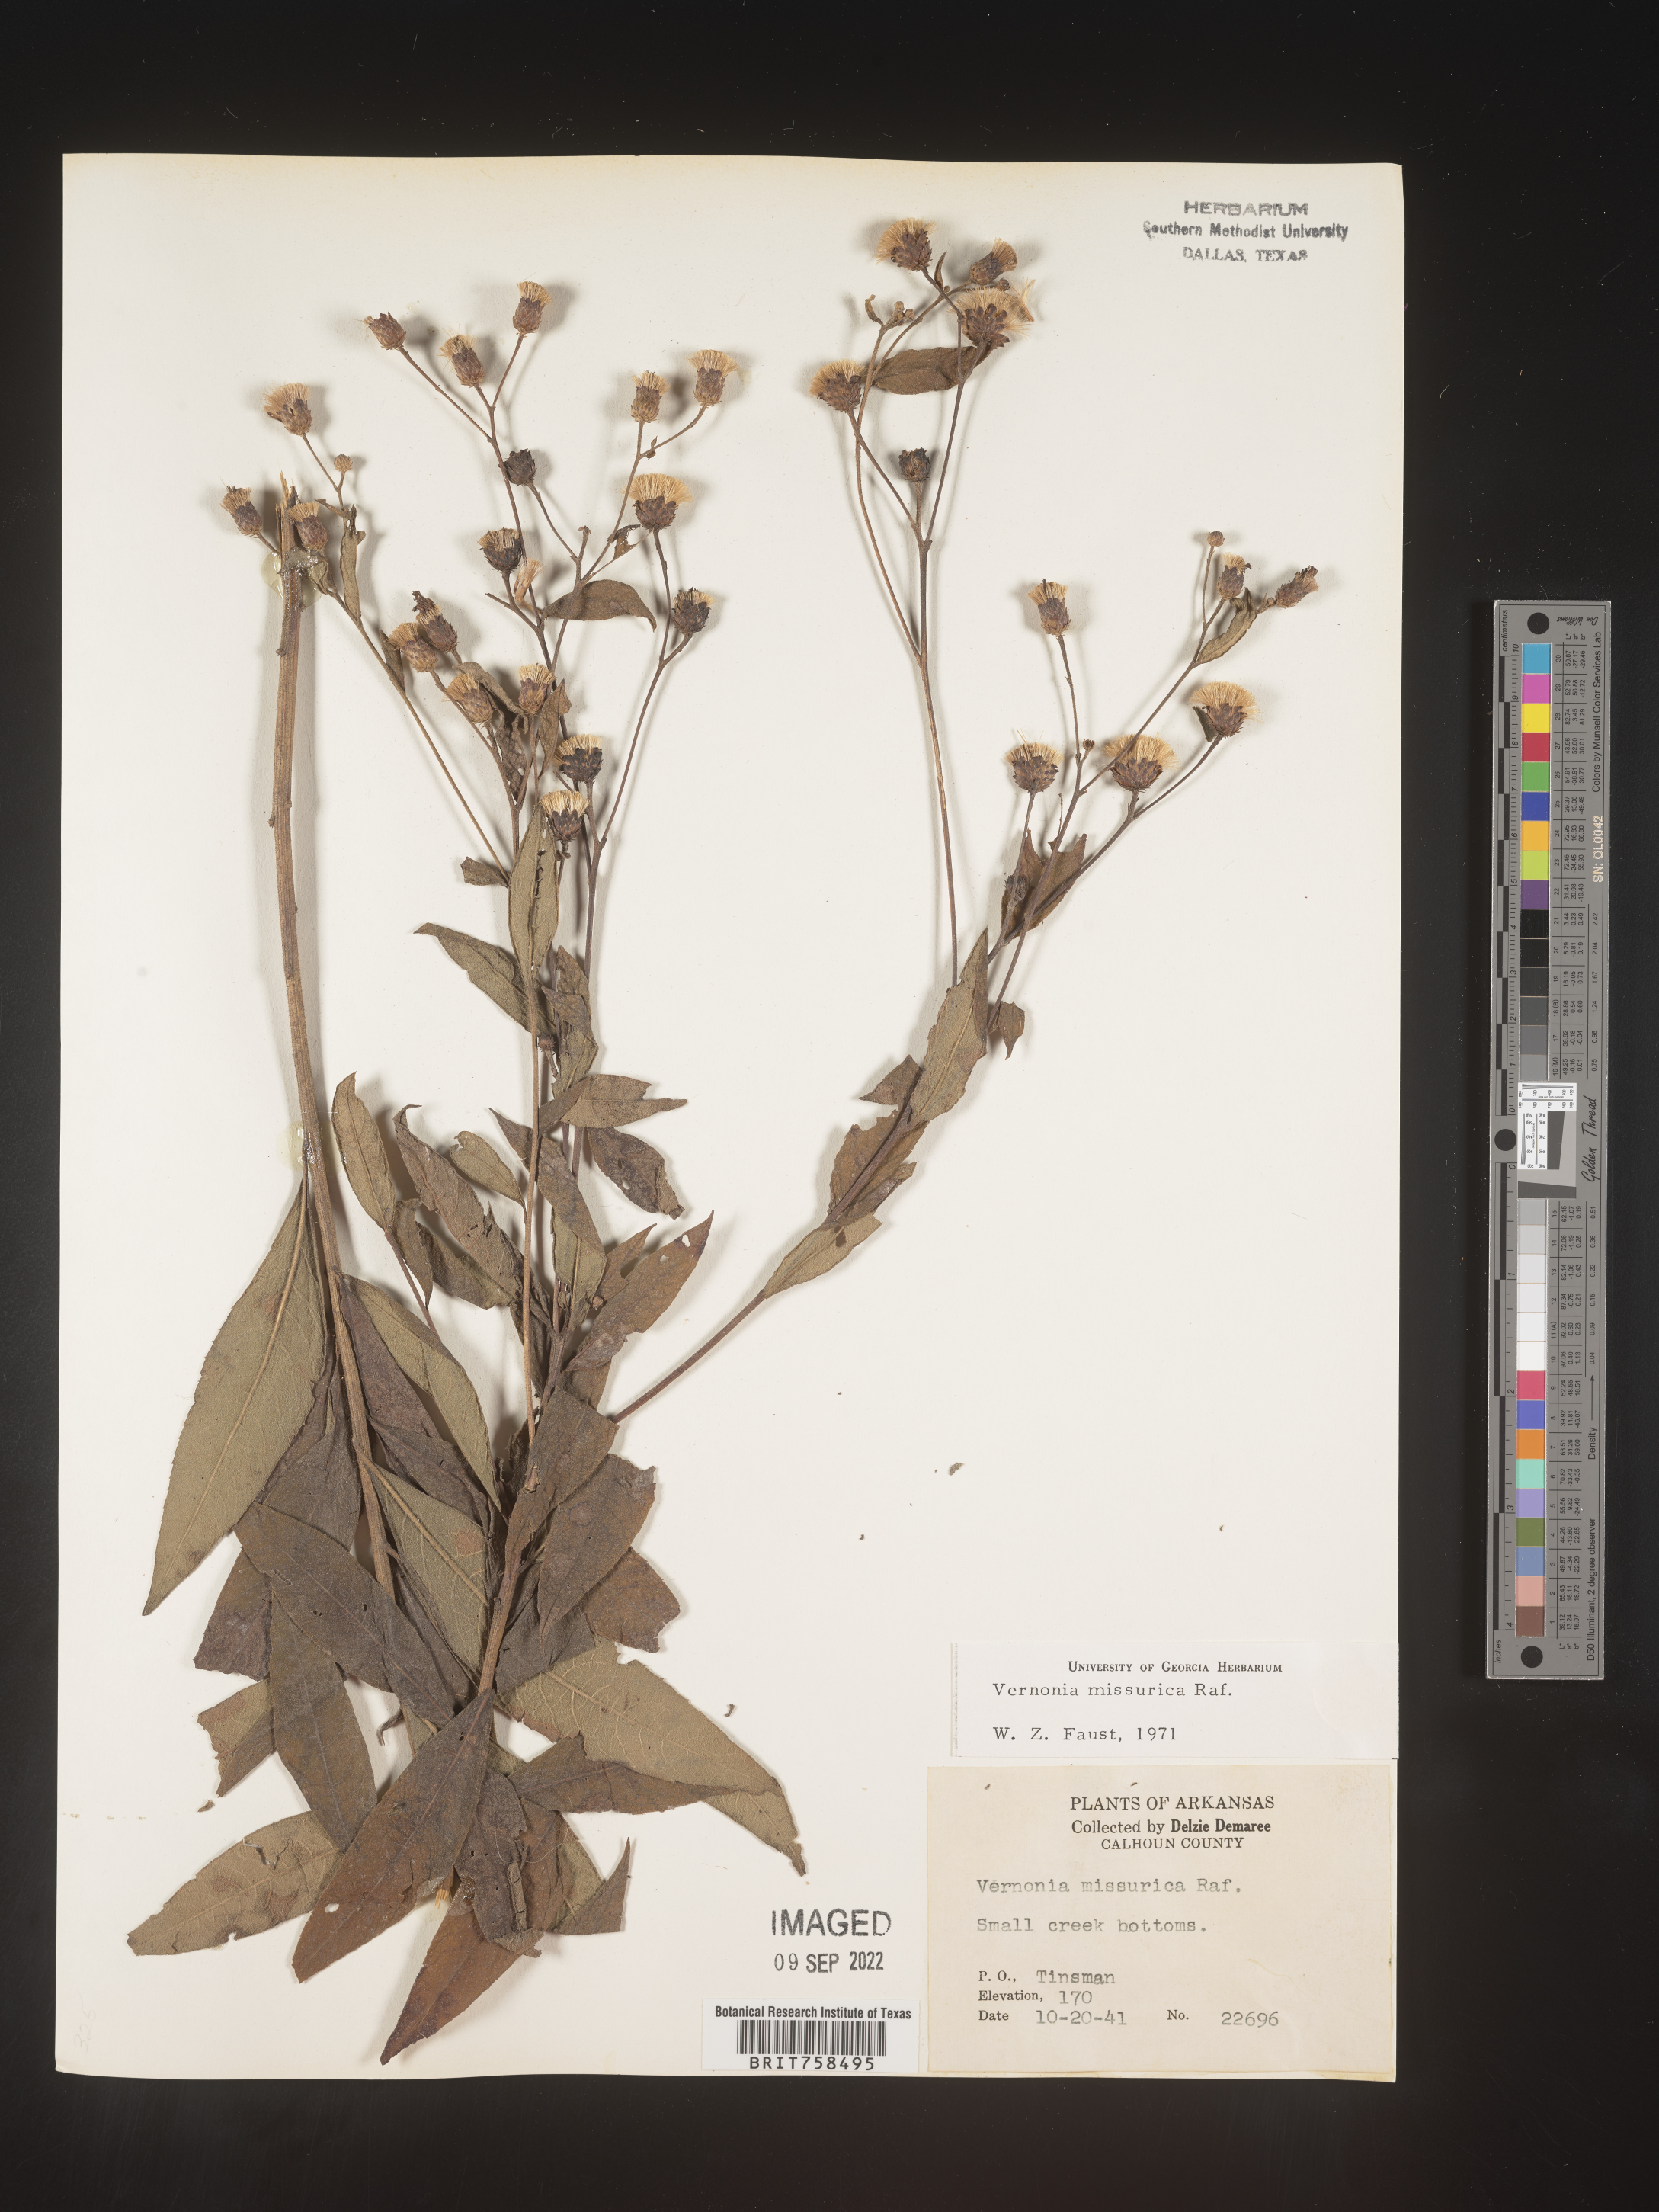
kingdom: Plantae
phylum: Tracheophyta
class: Magnoliopsida
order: Asterales
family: Asteraceae
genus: Vernonia
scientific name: Vernonia missurica
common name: Missouri ironweed
